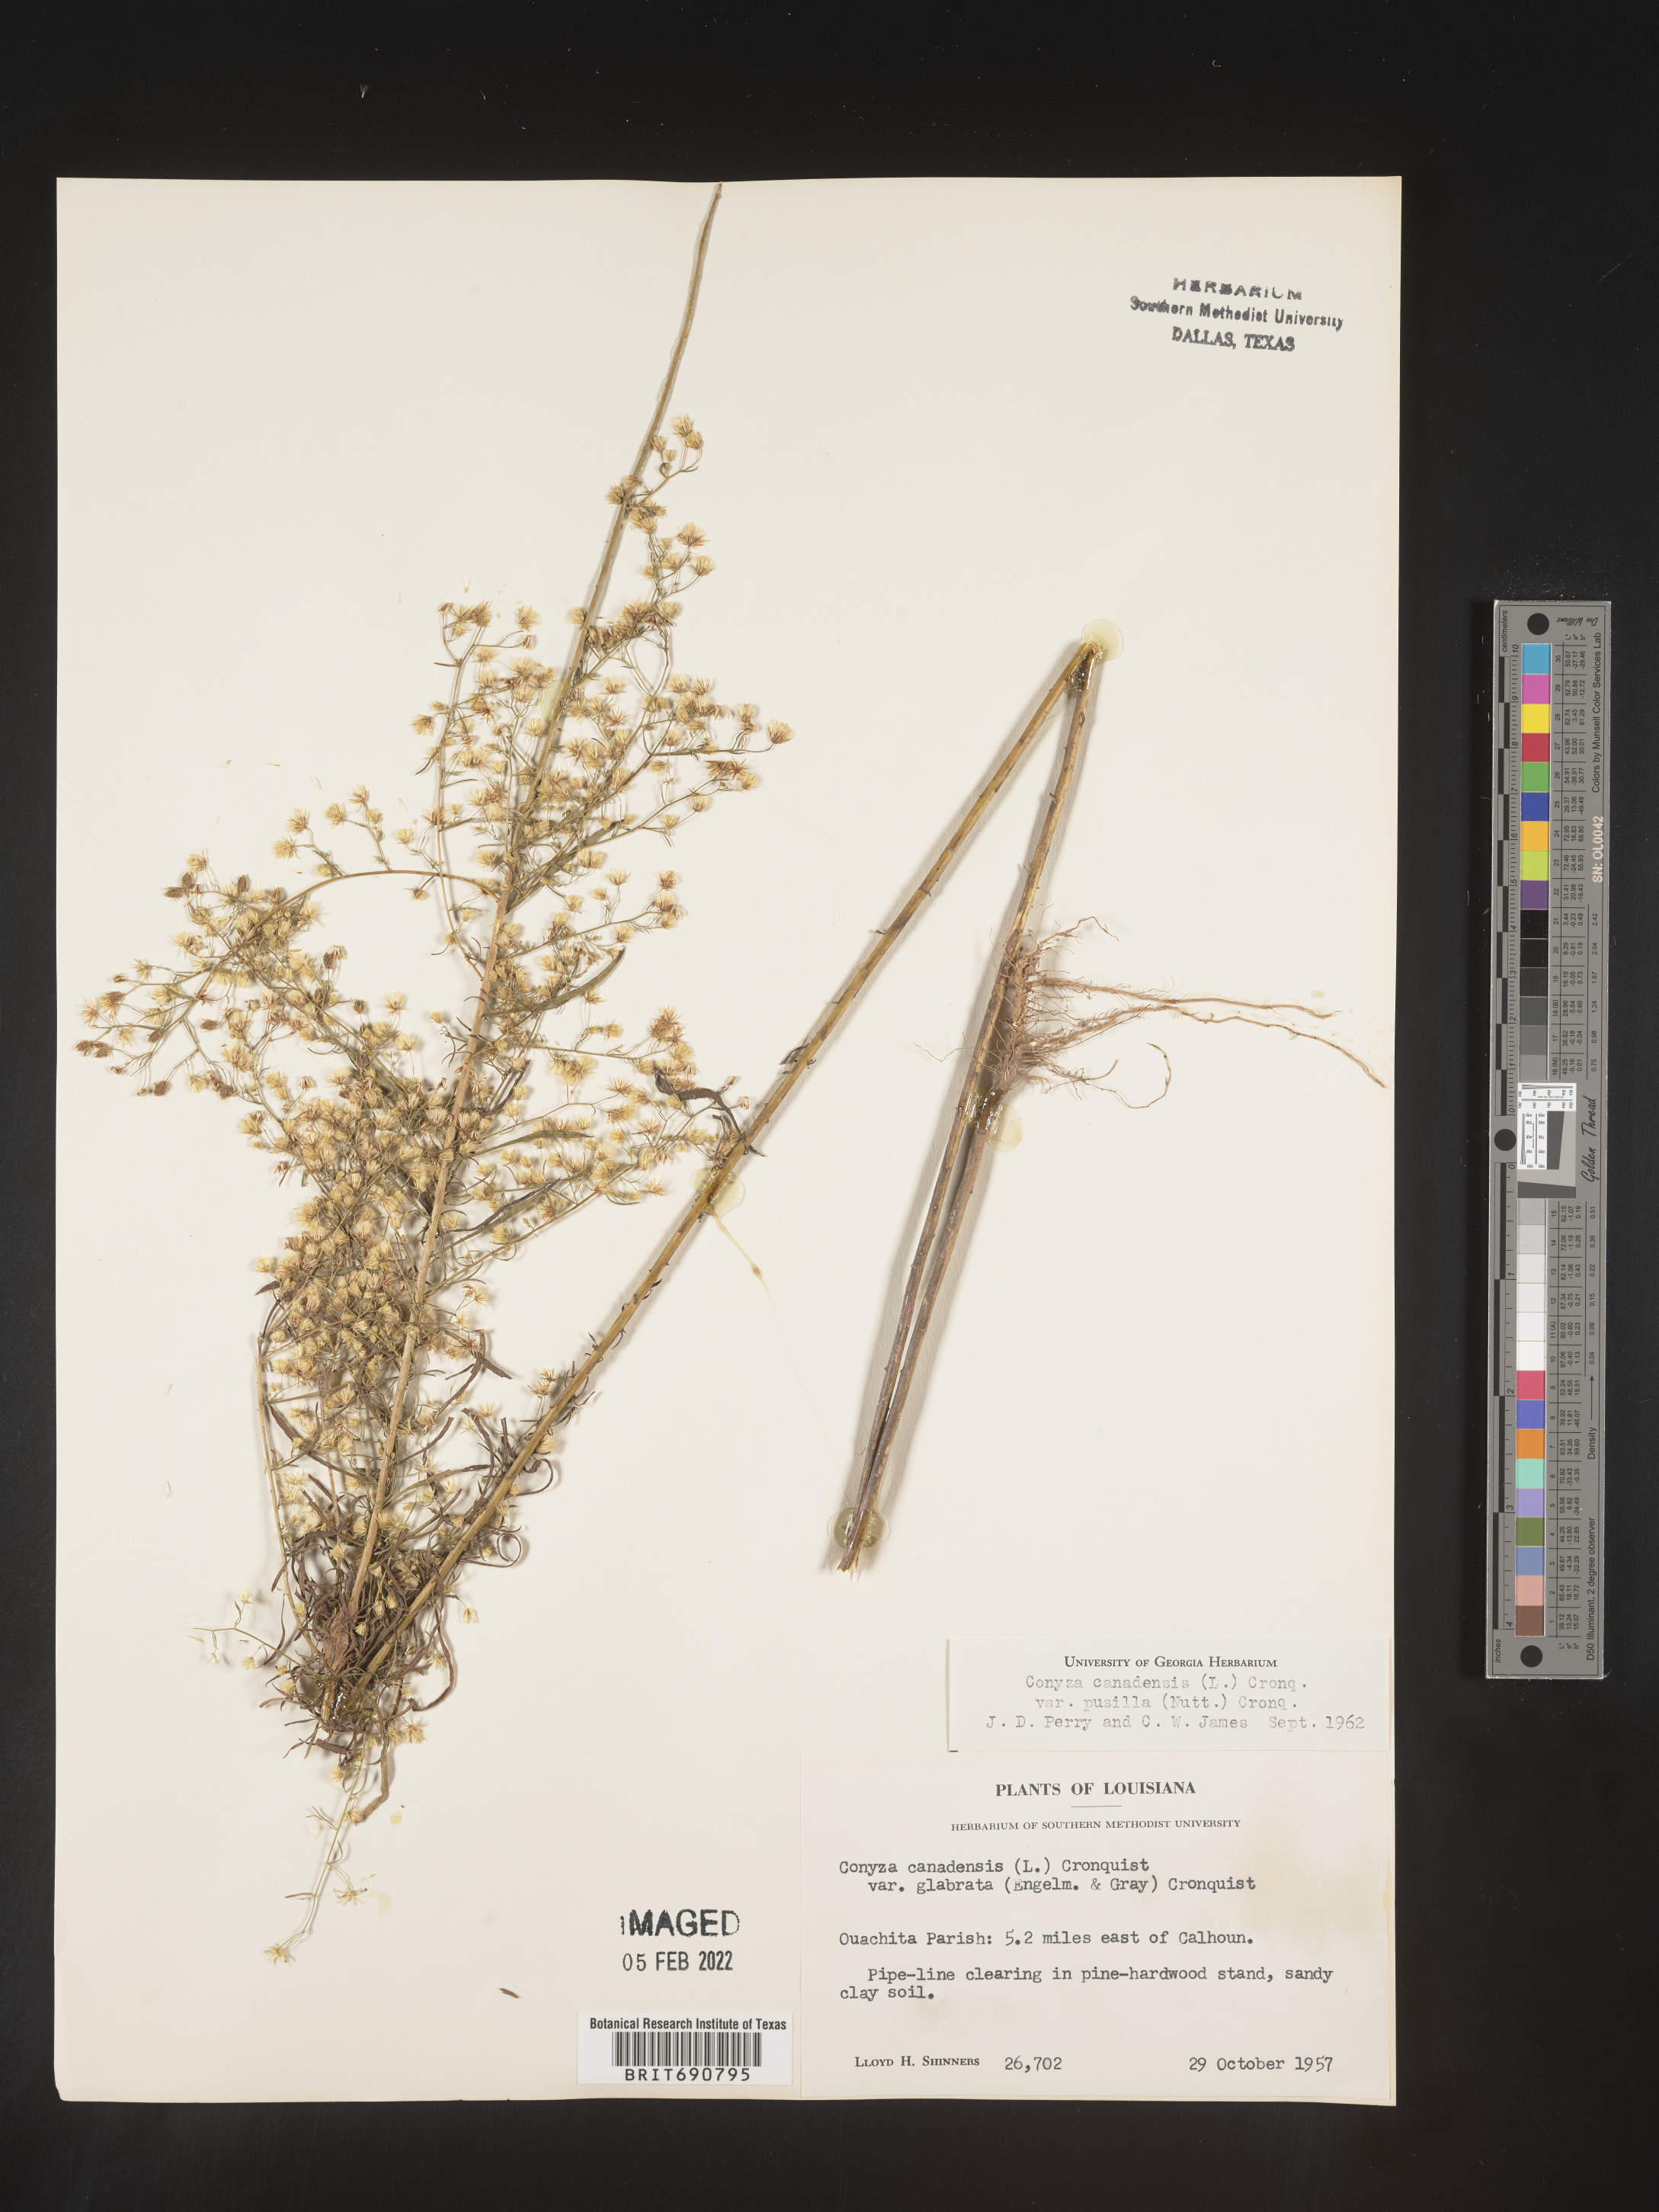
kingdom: Plantae
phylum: Tracheophyta
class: Magnoliopsida
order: Asterales
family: Asteraceae
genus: Erigeron
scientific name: Erigeron canadensis
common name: Canadian fleabane
